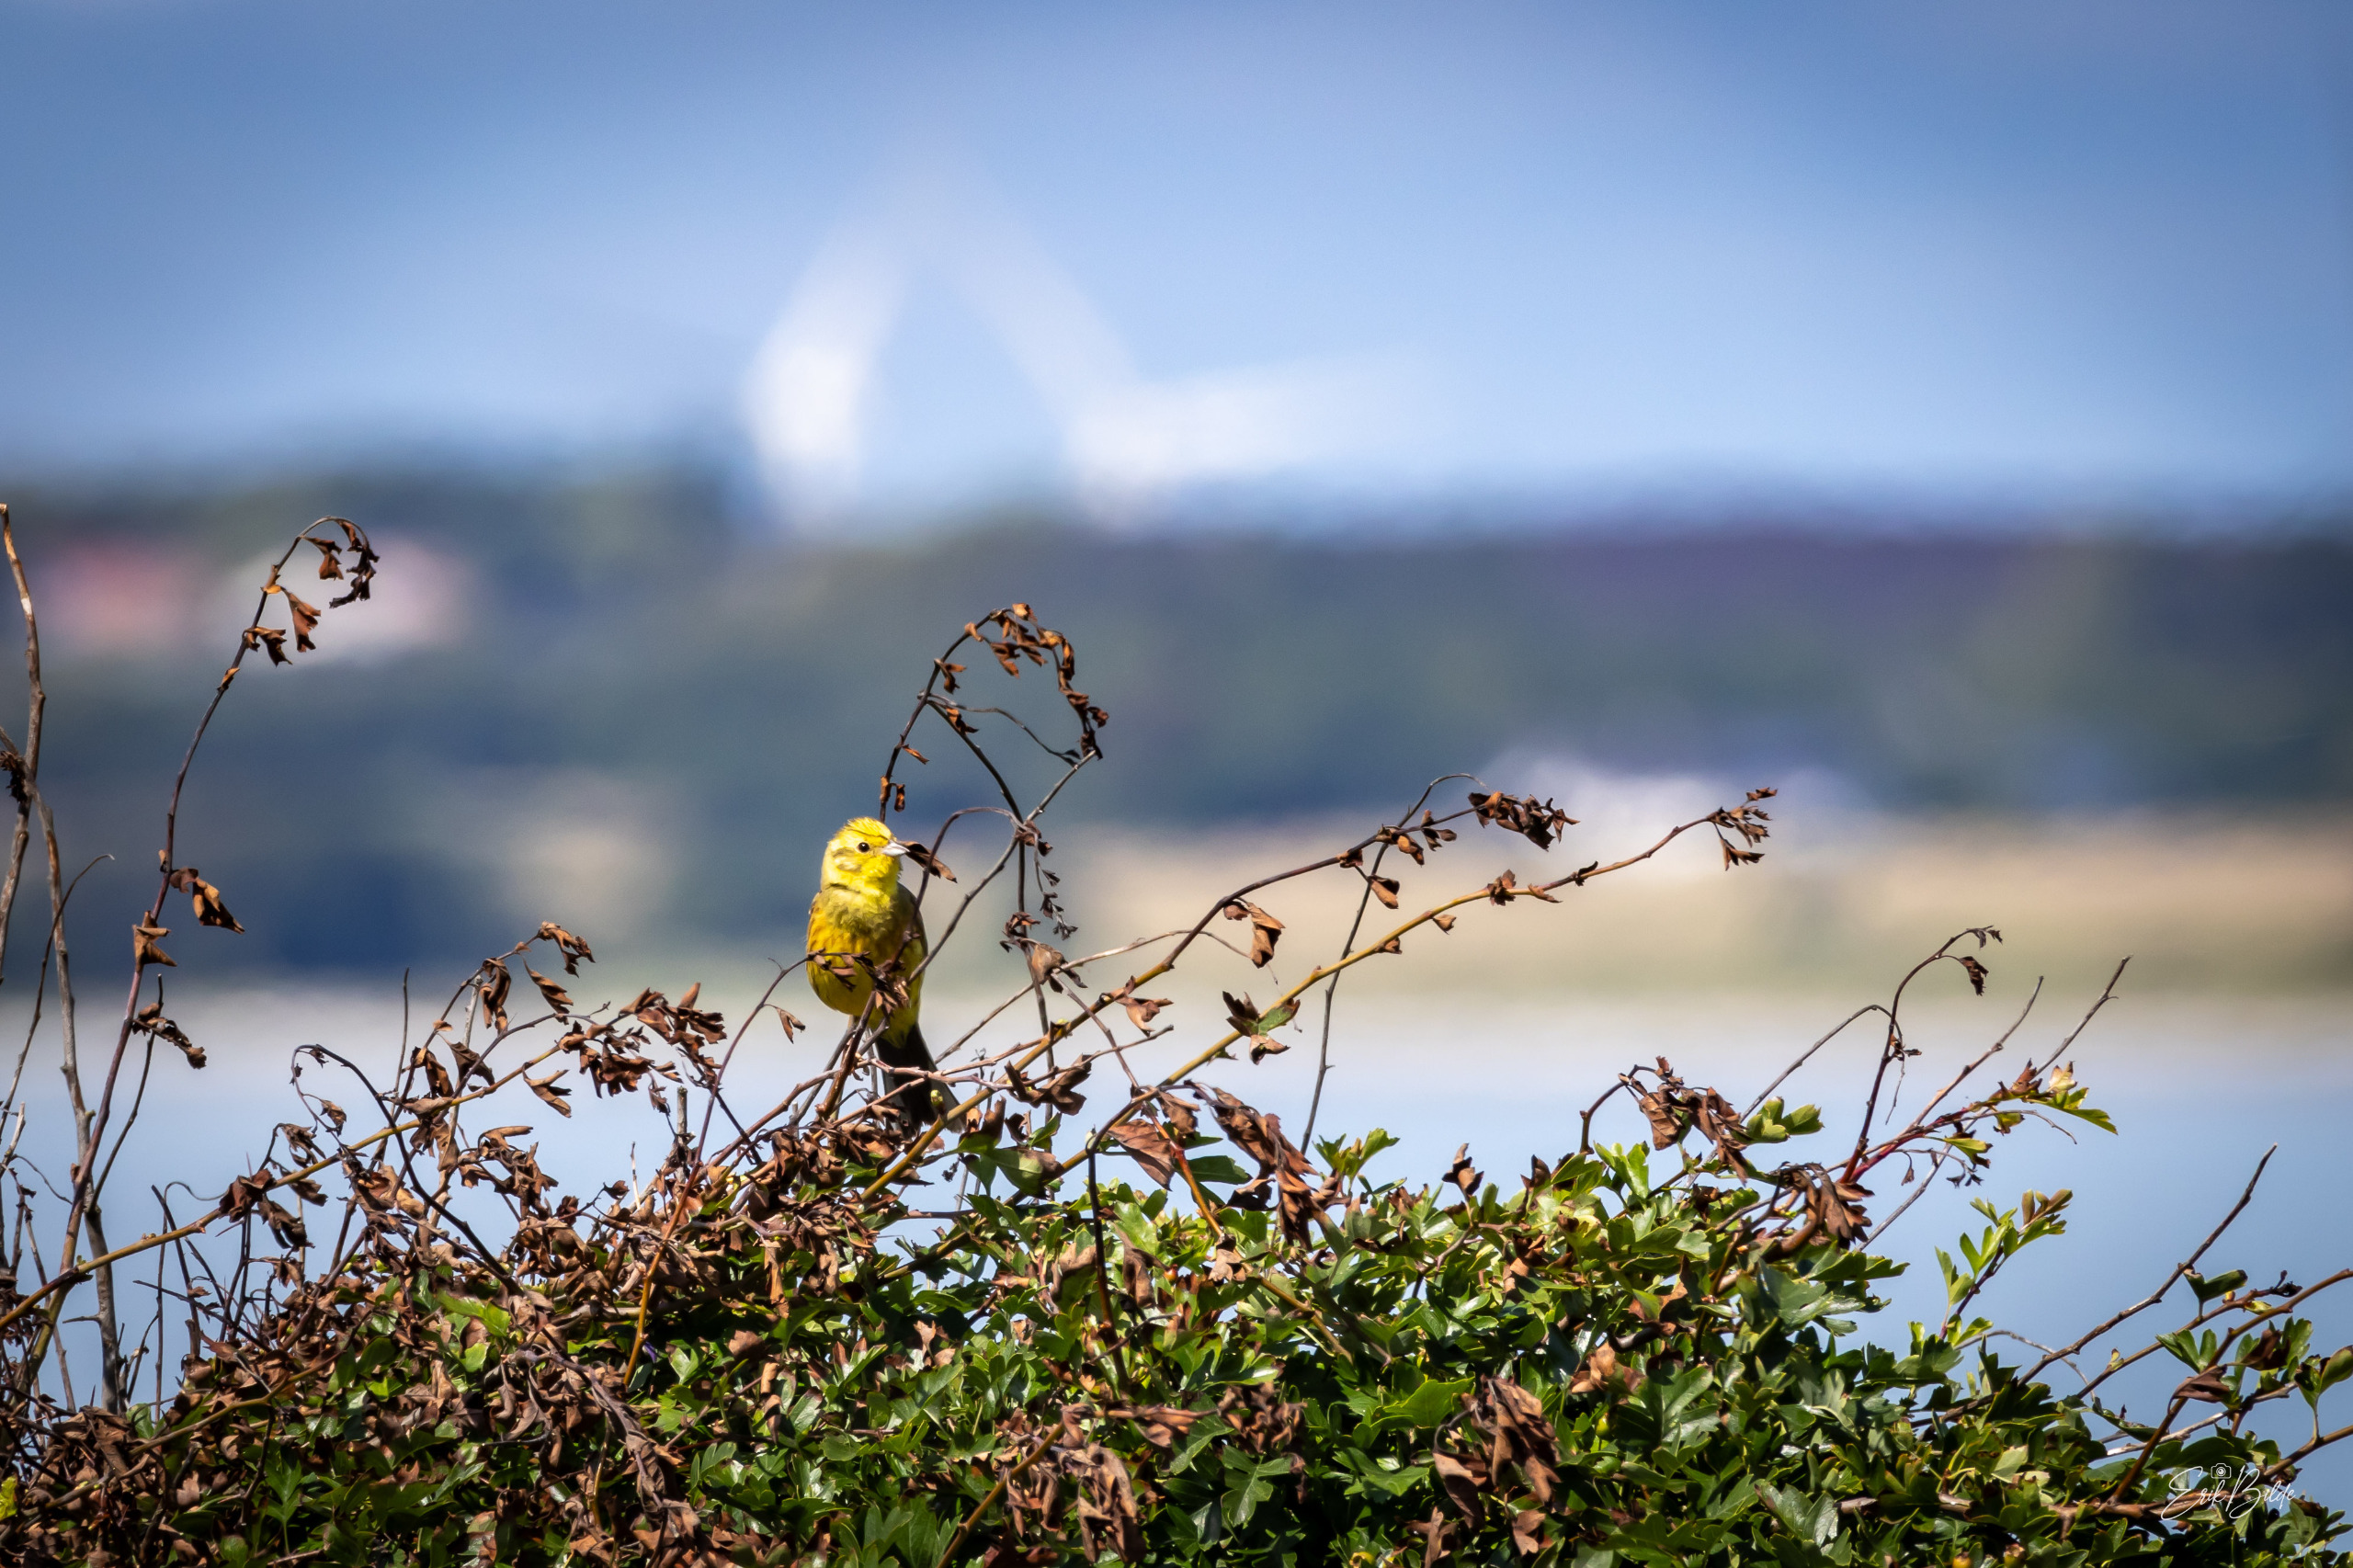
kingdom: Animalia
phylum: Chordata
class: Aves
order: Passeriformes
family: Emberizidae
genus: Emberiza
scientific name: Emberiza citrinella
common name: Gulspurv
